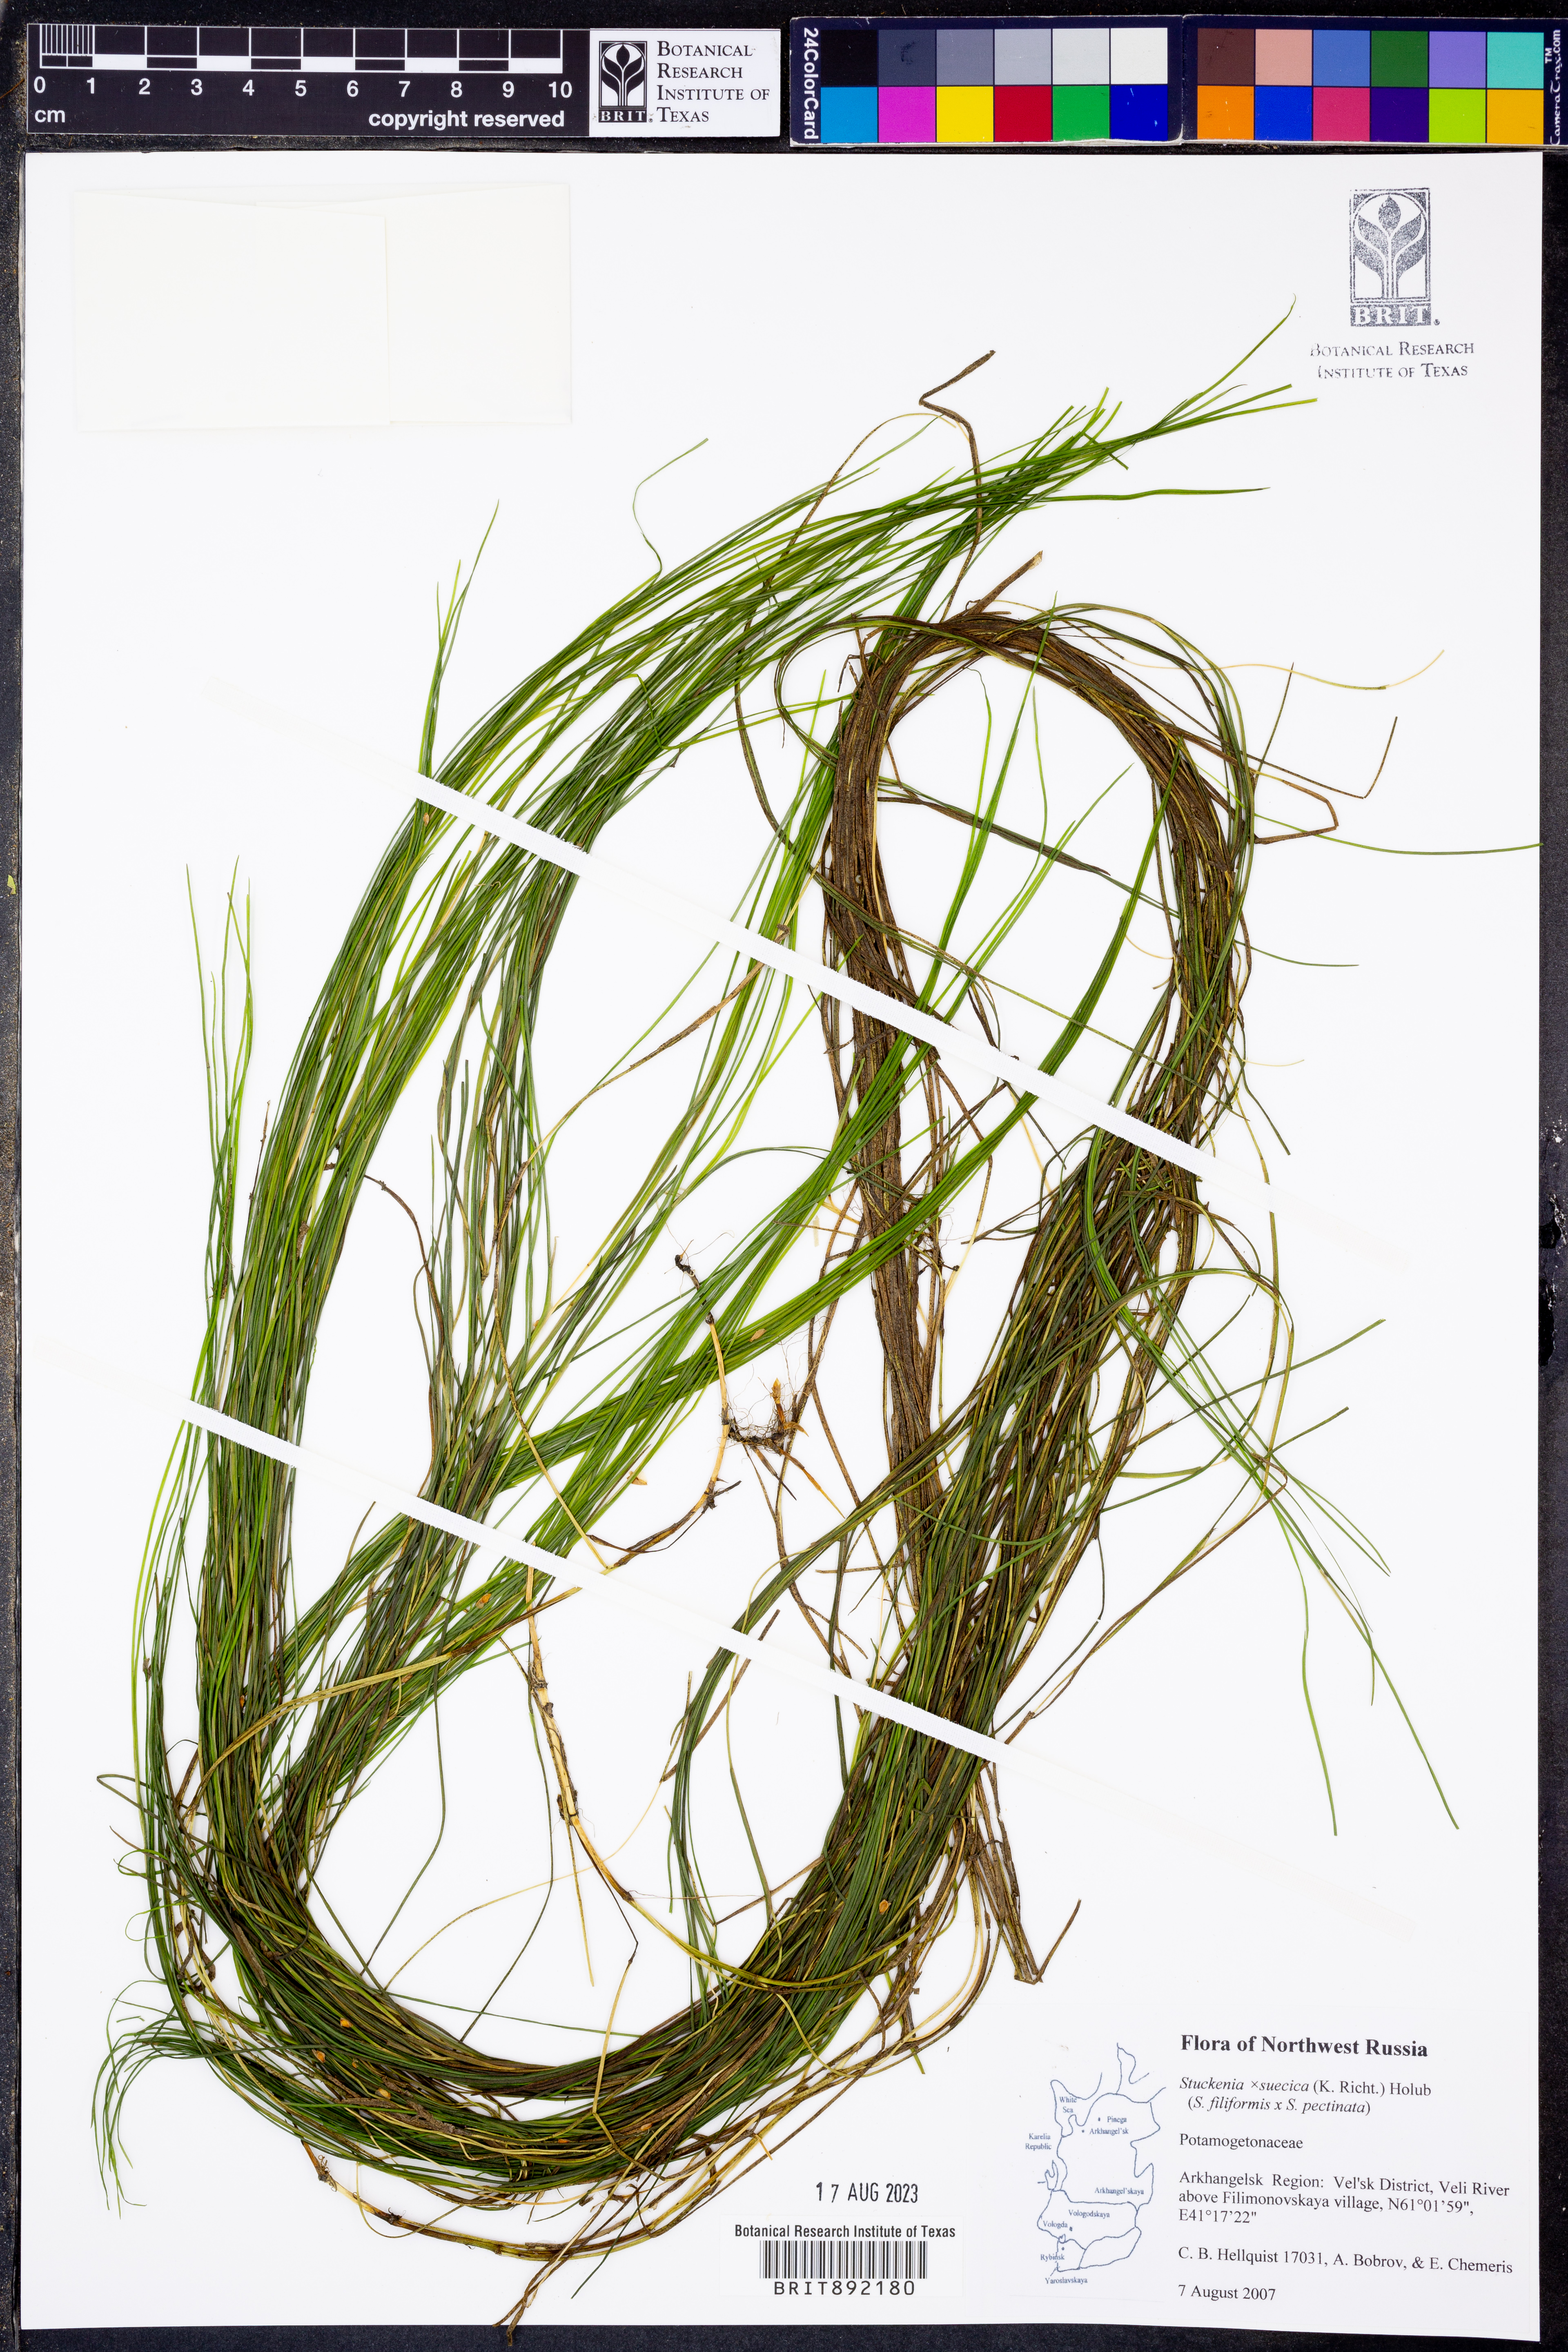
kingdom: Plantae
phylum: Tracheophyta
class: Liliopsida
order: Alismatales
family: Potamogetonaceae
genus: Stuckenia
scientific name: Stuckenia
